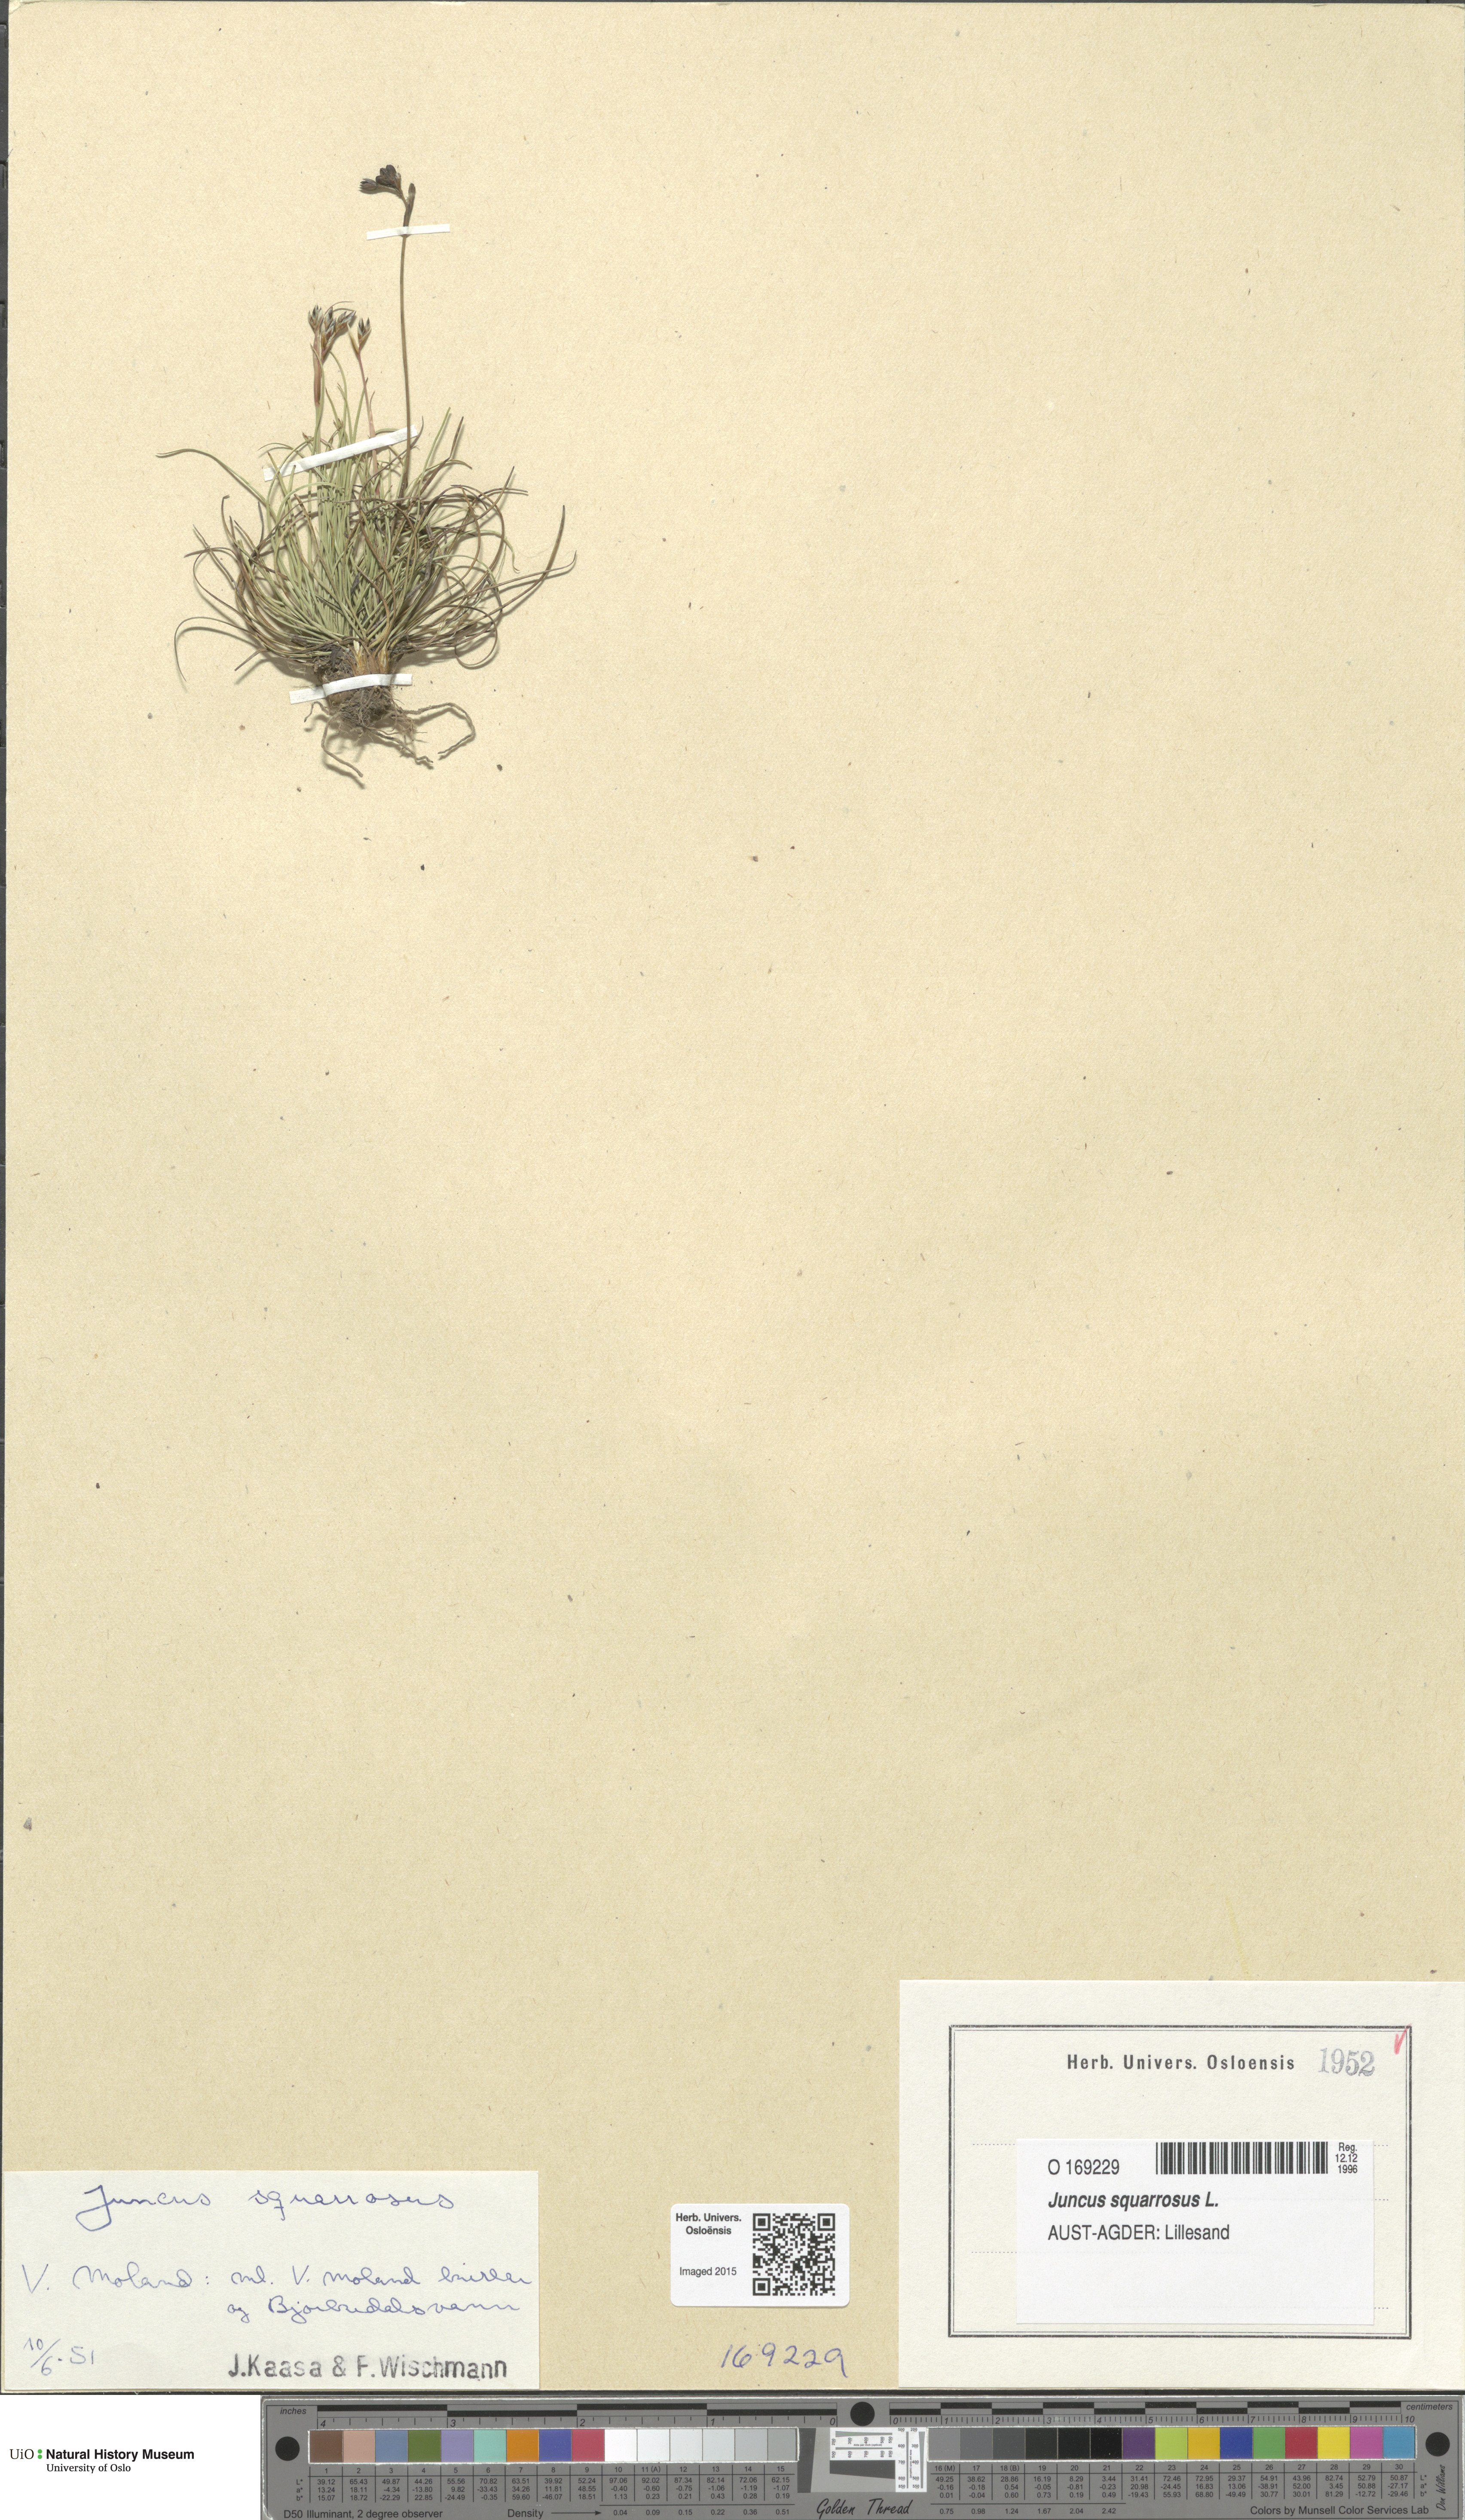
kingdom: Plantae
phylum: Tracheophyta
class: Liliopsida
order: Poales
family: Juncaceae
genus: Juncus
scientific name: Juncus squarrosus
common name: Heath rush
